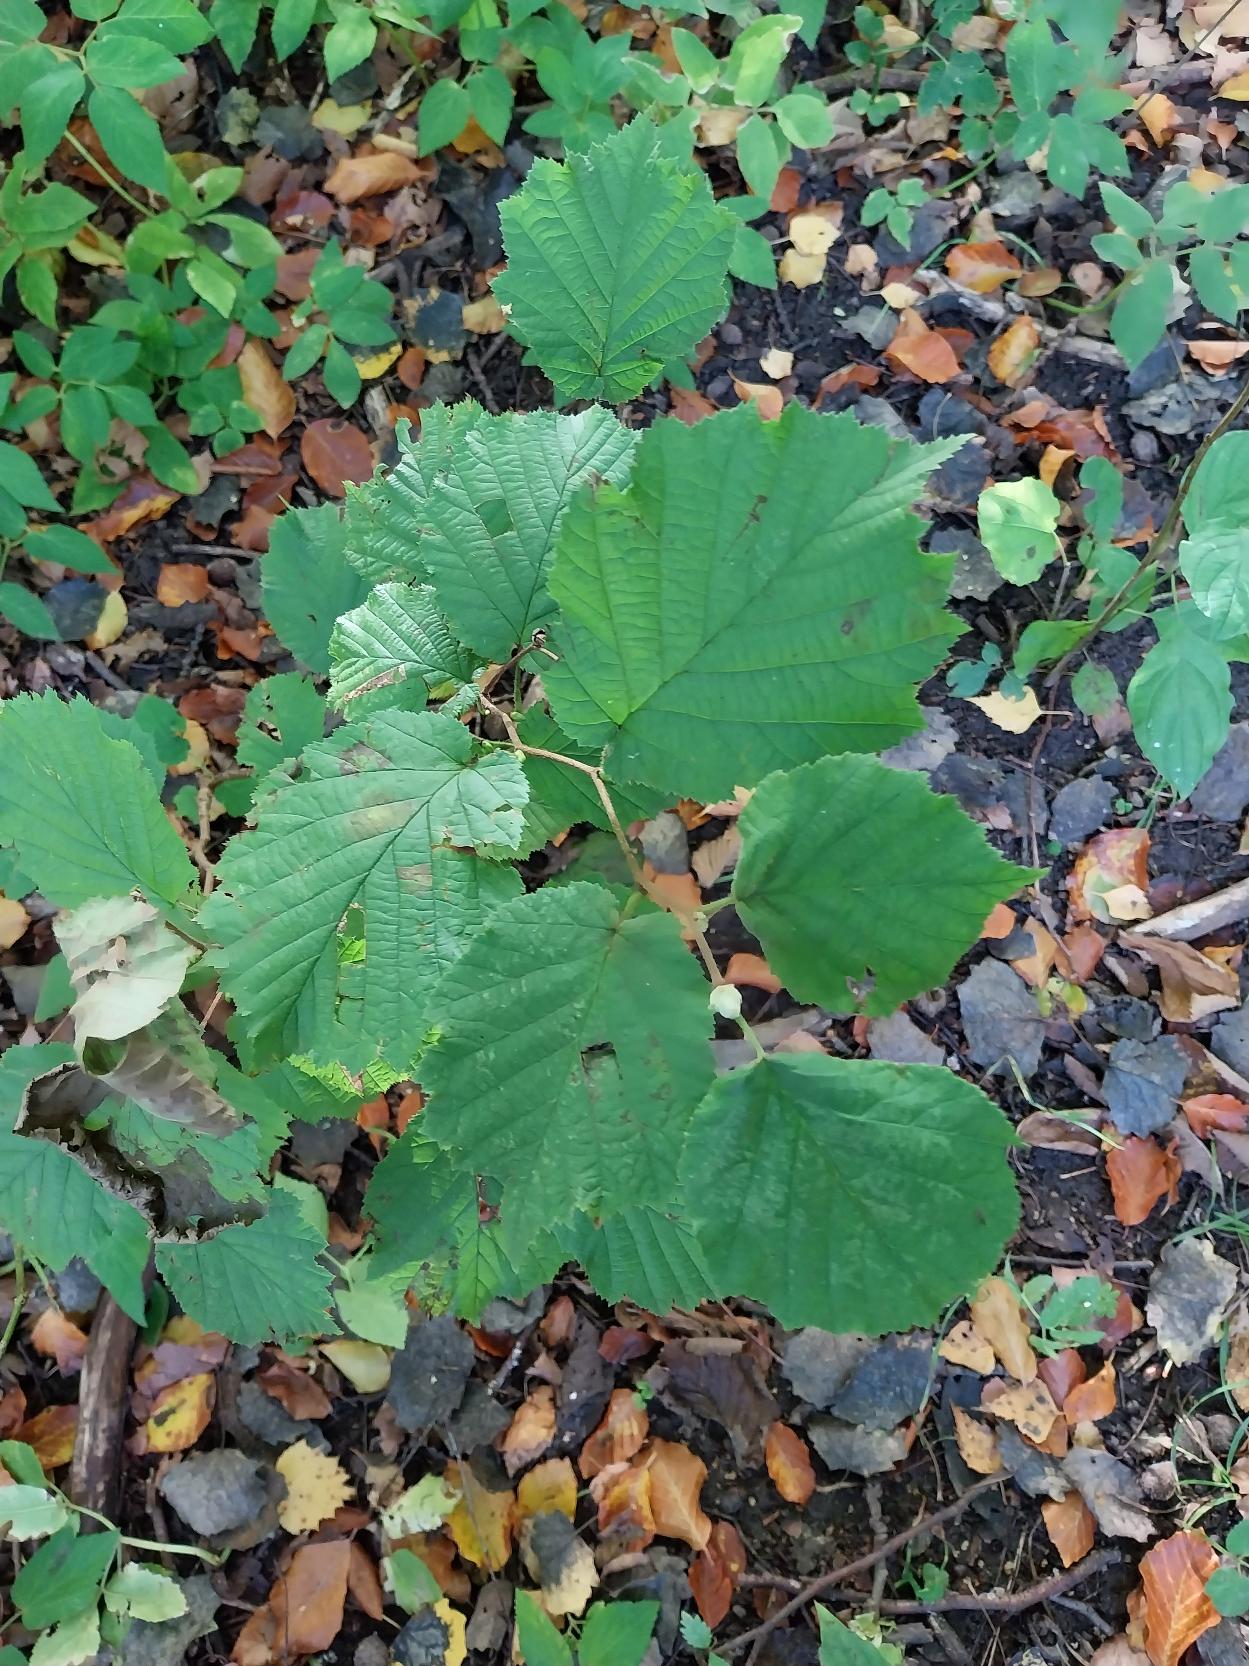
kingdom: Plantae
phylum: Tracheophyta
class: Magnoliopsida
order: Fagales
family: Betulaceae
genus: Corylus
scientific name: Corylus avellana
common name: Hassel
